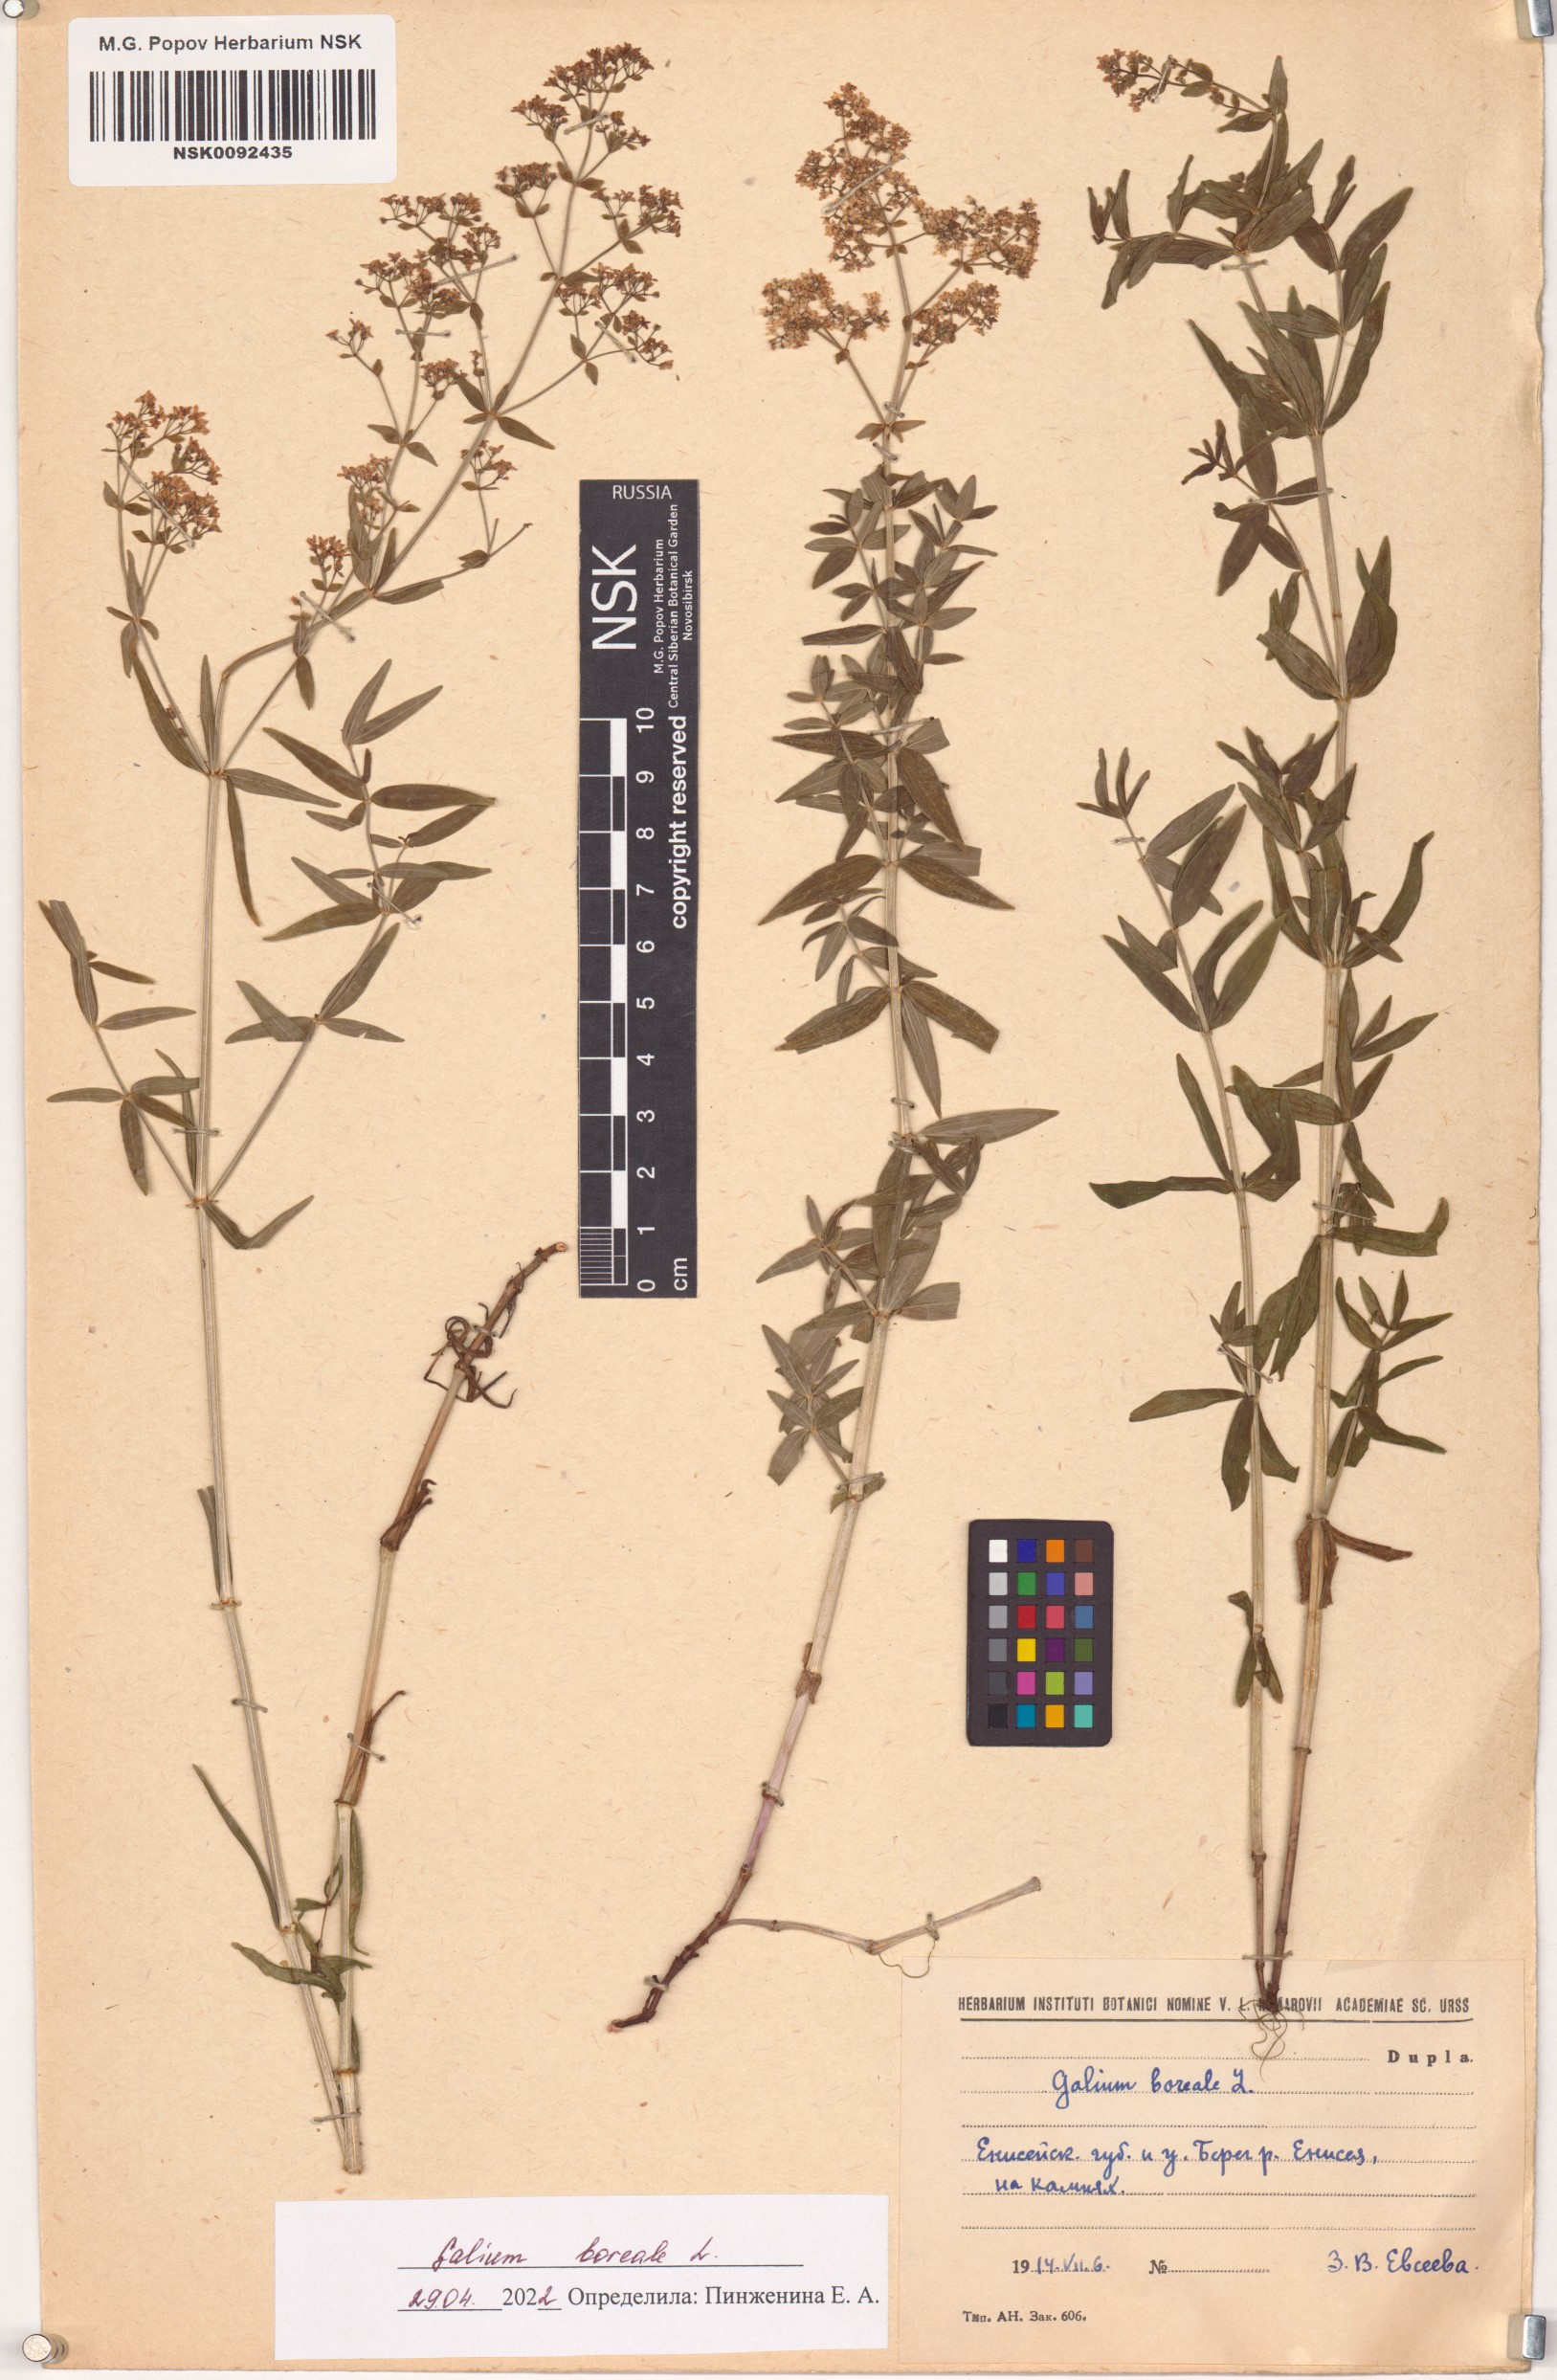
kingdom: Plantae
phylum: Tracheophyta
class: Magnoliopsida
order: Gentianales
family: Rubiaceae
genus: Galium
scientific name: Galium boreale
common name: Northern bedstraw
